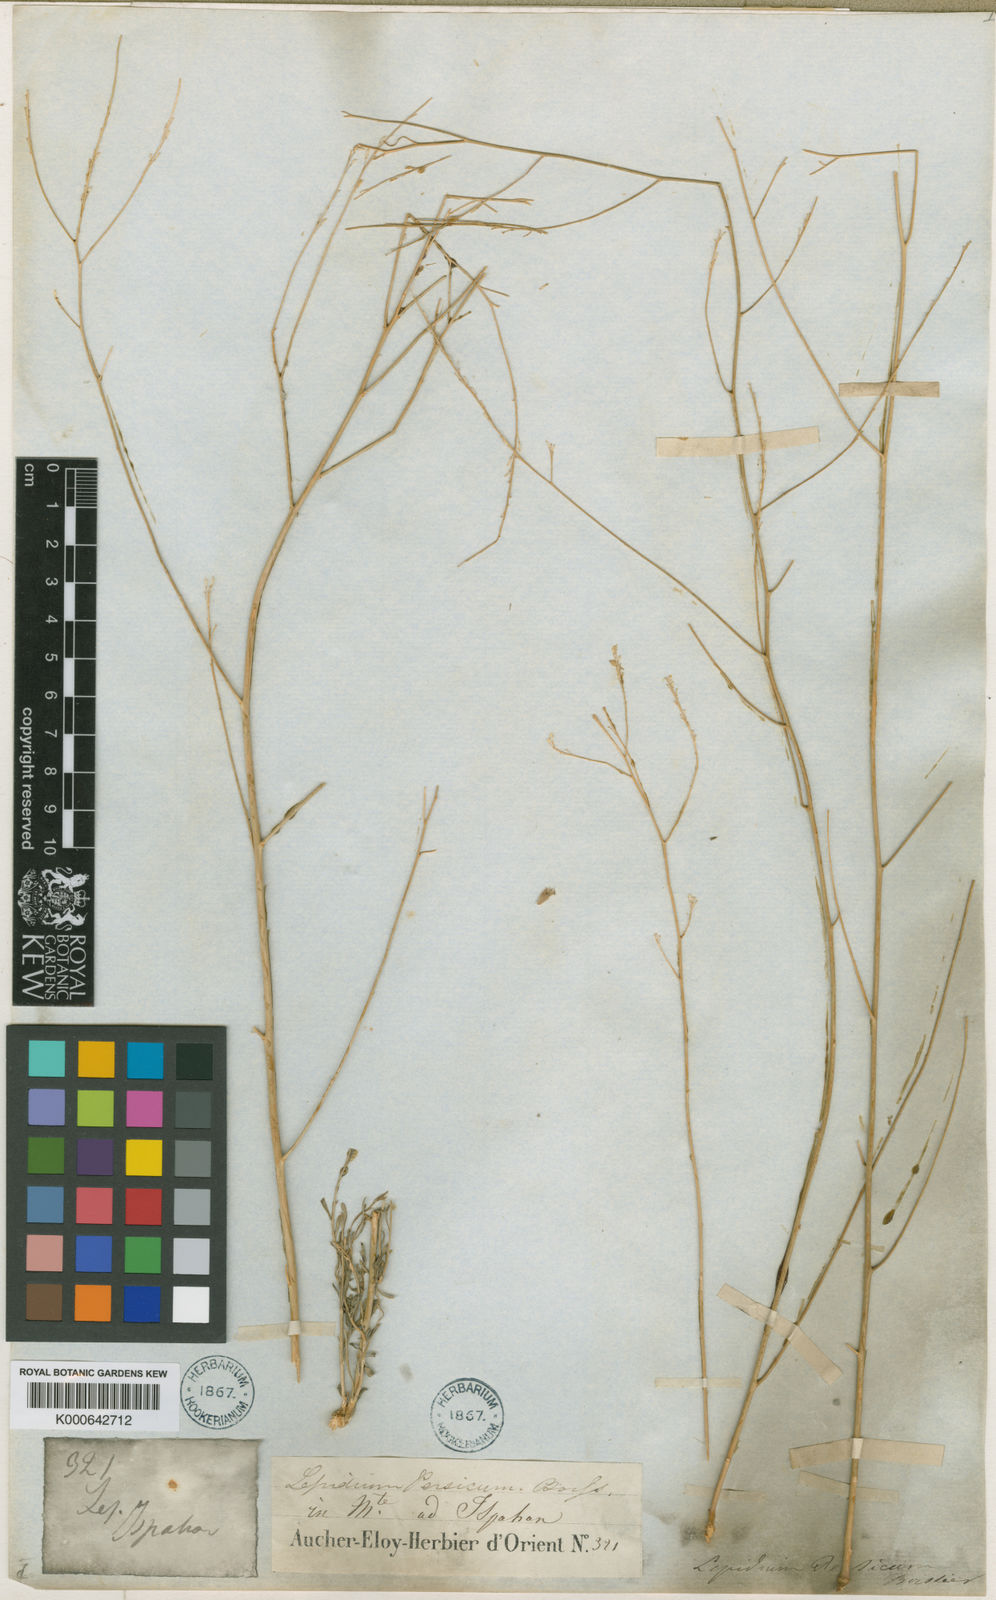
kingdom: Plantae
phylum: Tracheophyta
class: Magnoliopsida
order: Brassicales
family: Brassicaceae
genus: Lepidium
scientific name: Lepidium persicum
